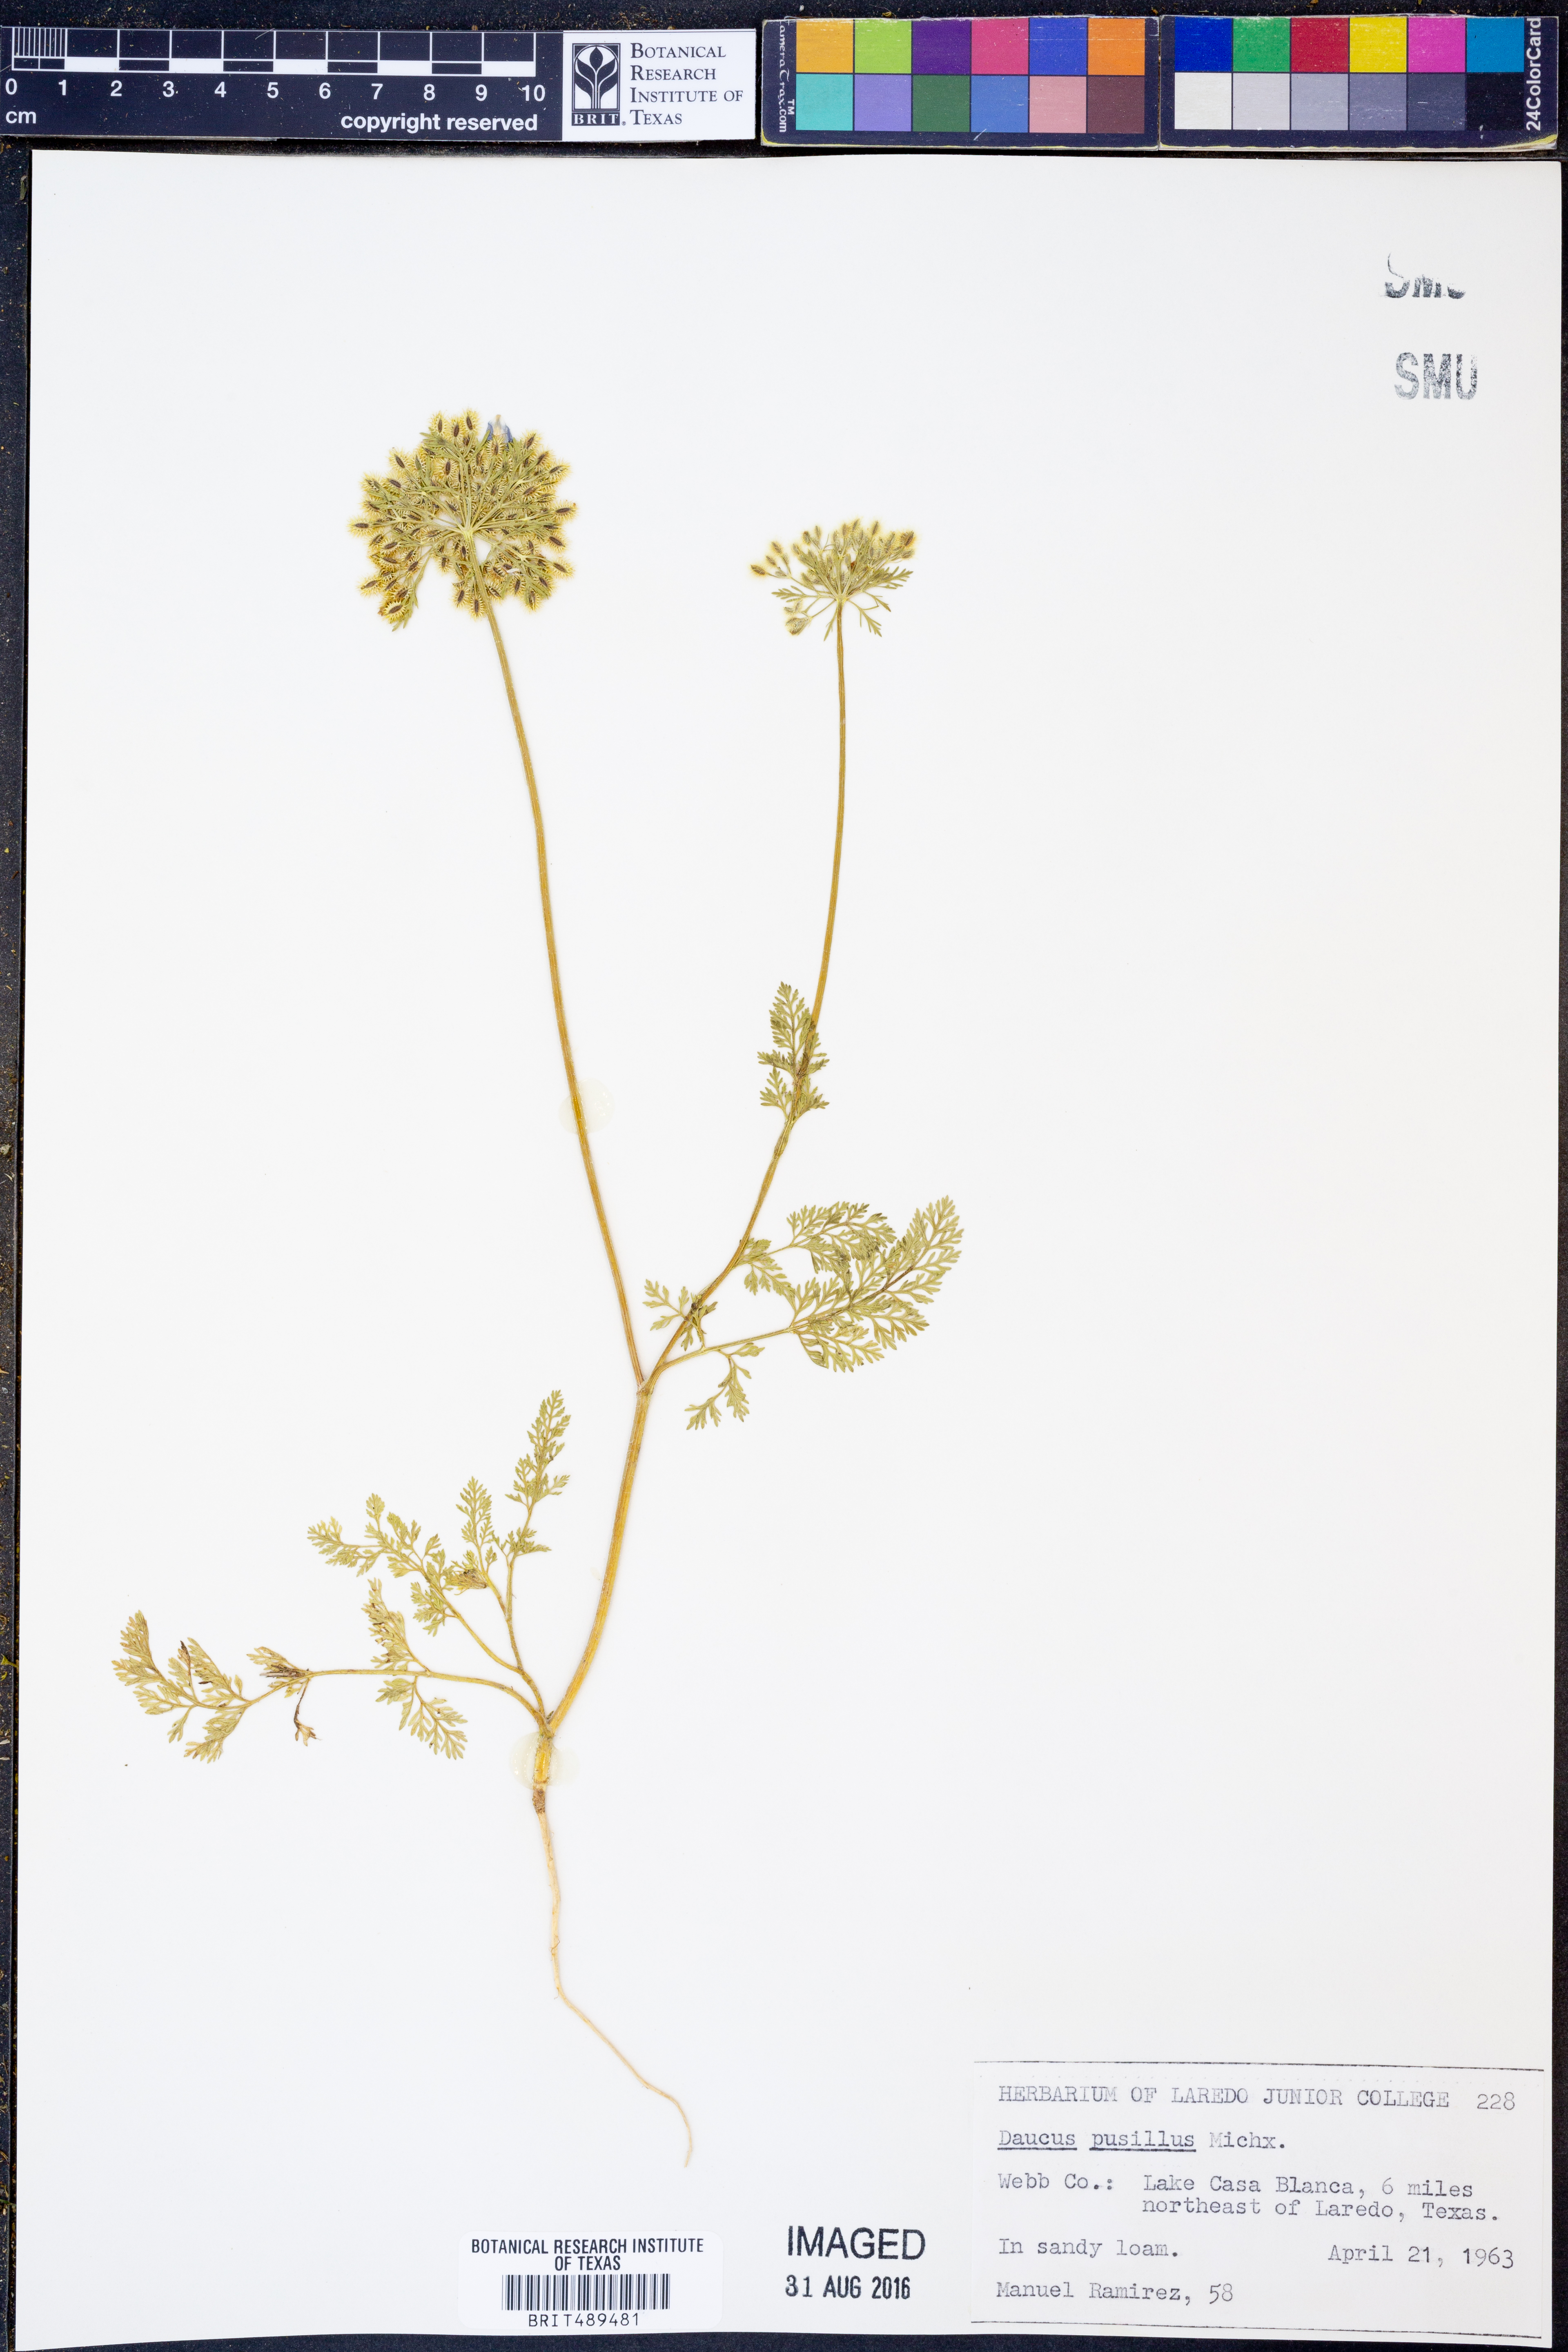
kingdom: Plantae
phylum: Tracheophyta
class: Magnoliopsida
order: Apiales
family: Apiaceae
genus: Daucus
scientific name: Daucus pusillus
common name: Southwest wild carrot
